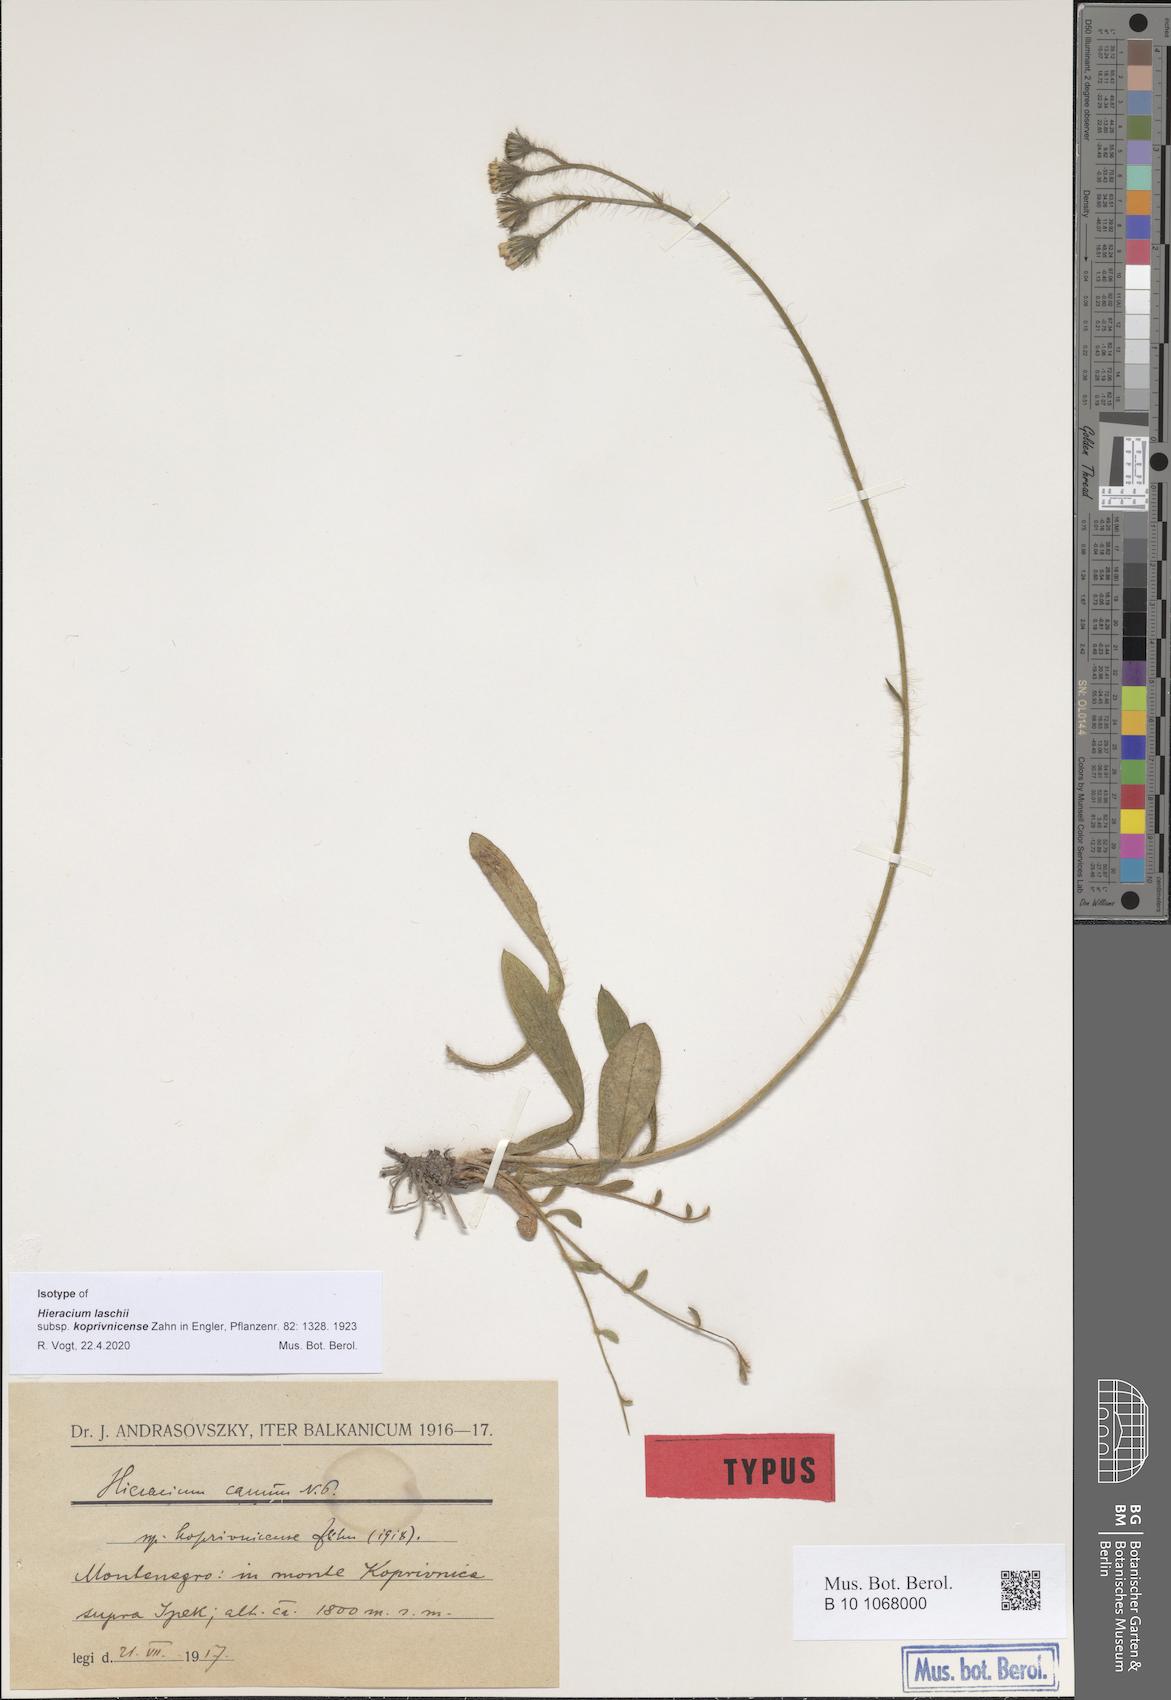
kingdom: Plantae
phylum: Tracheophyta
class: Magnoliopsida
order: Asterales
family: Asteraceae
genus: Pilosella
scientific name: Pilosella cana
